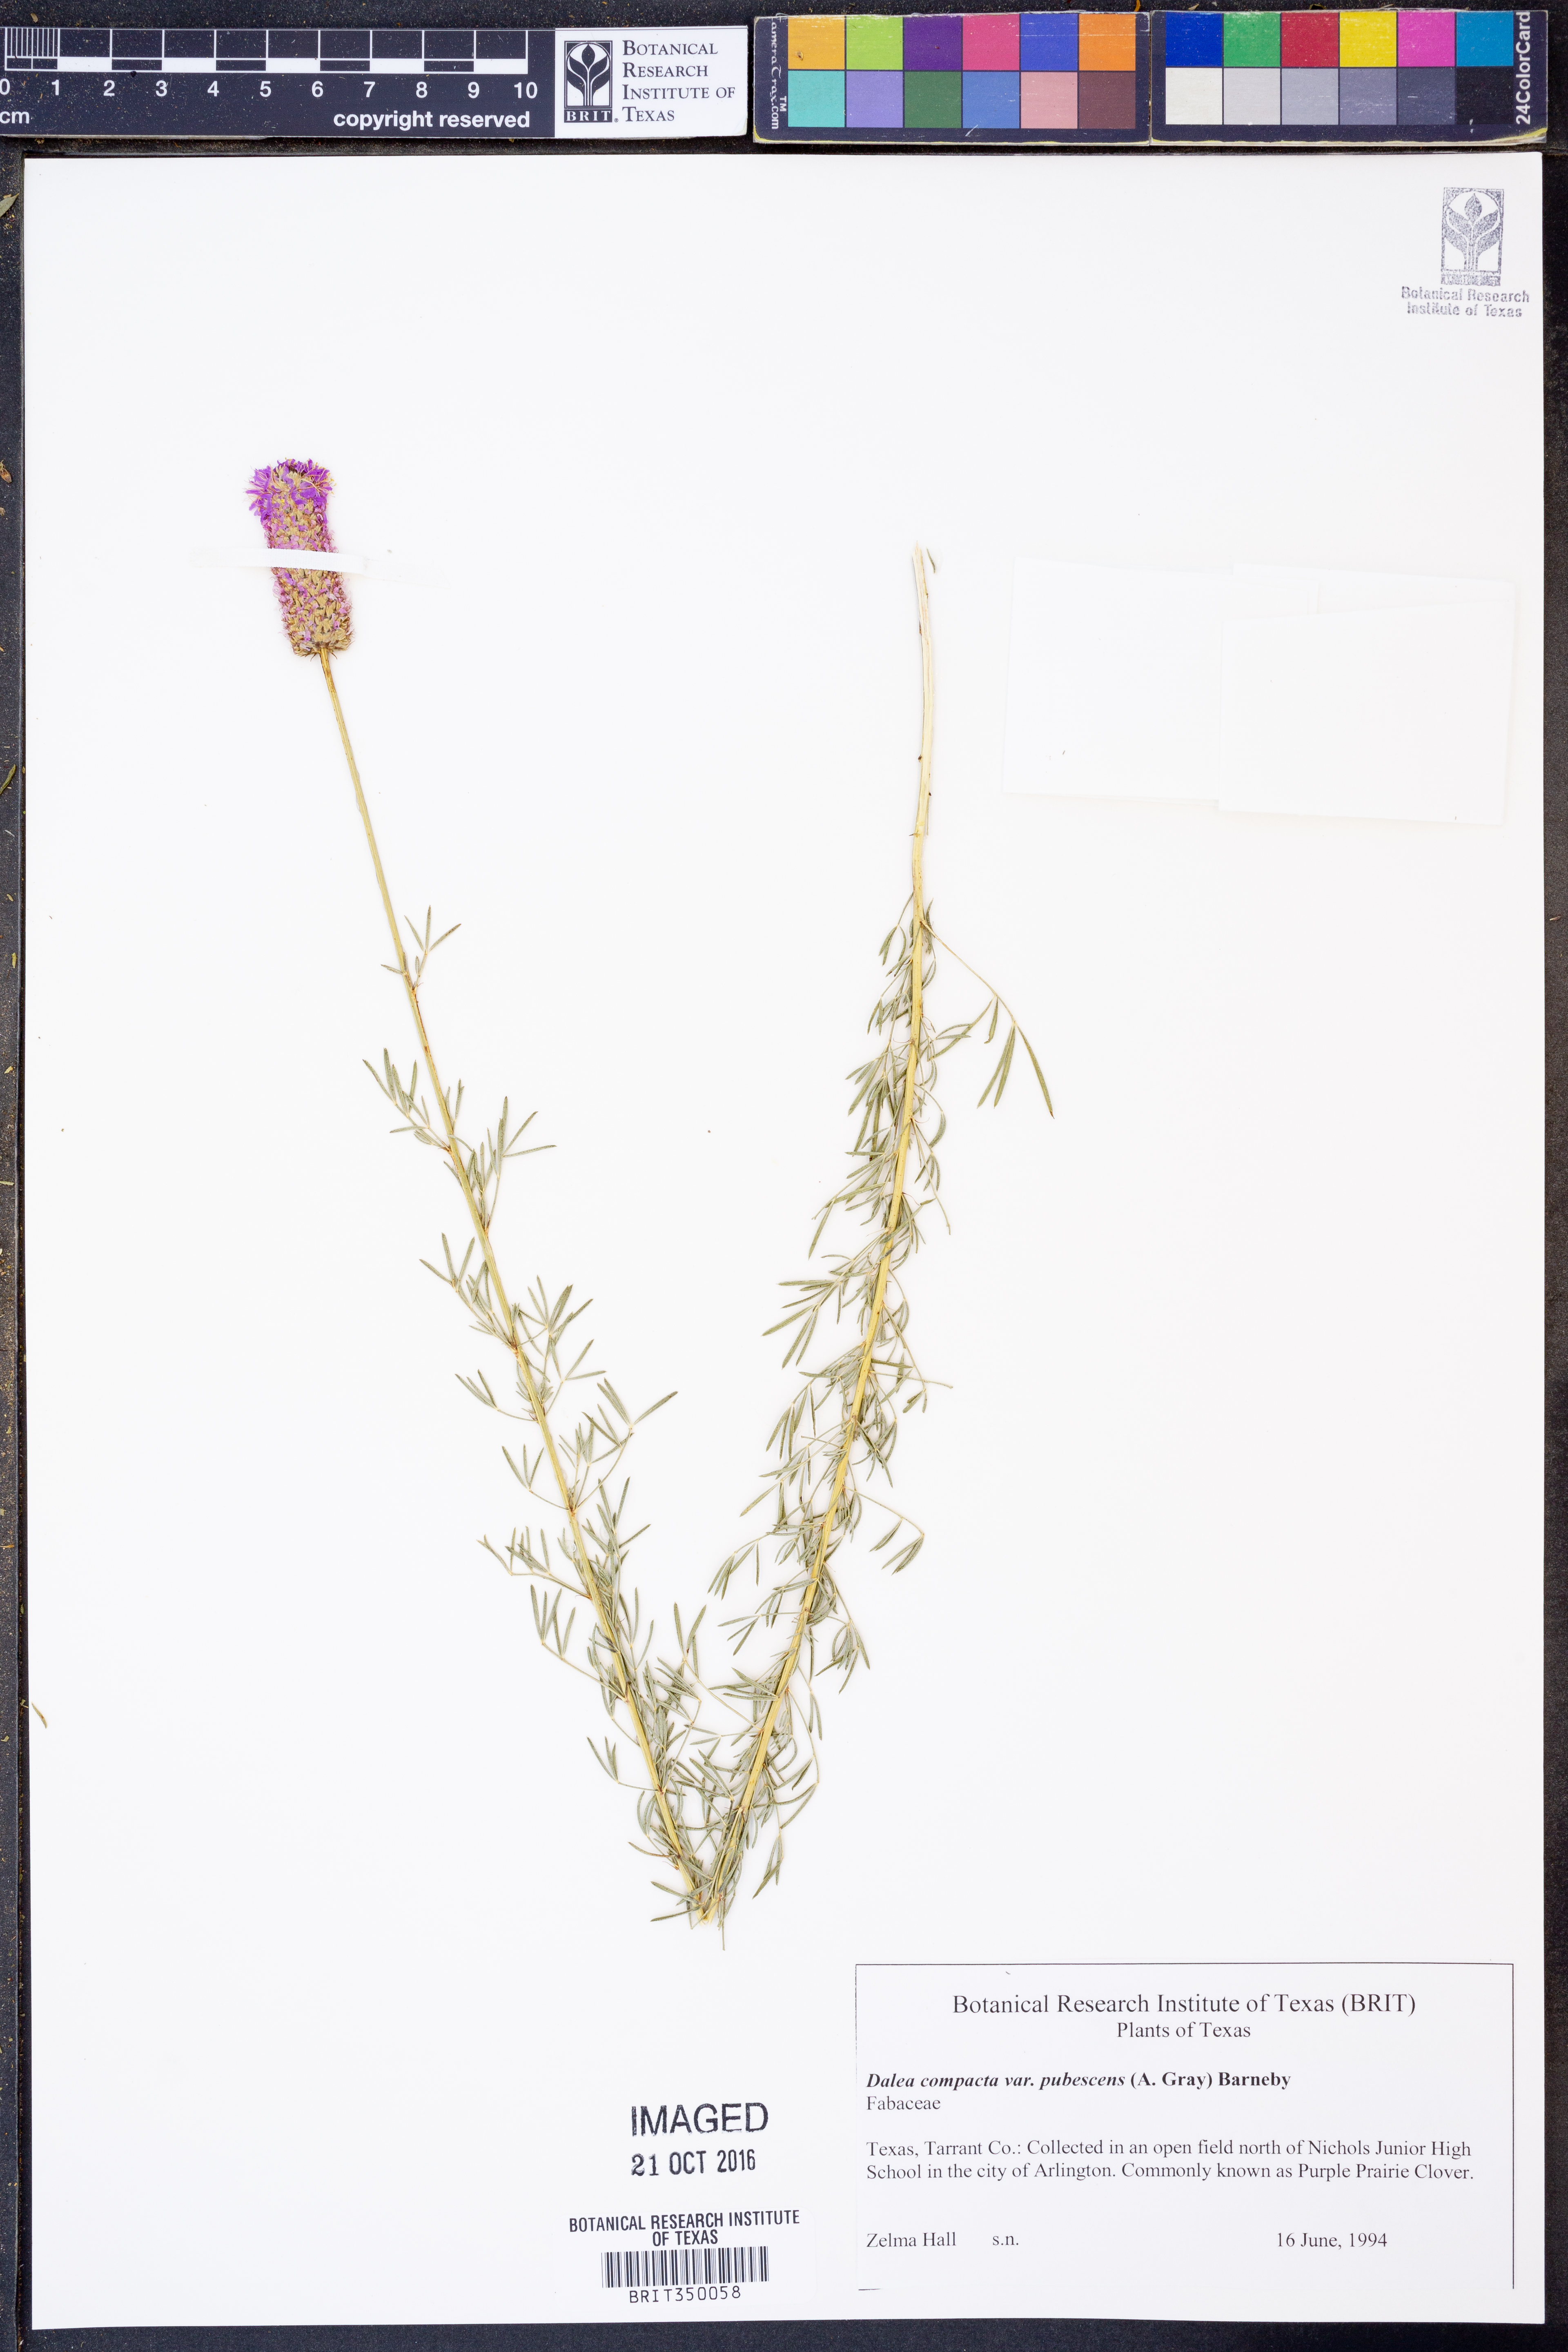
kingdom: Plantae
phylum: Tracheophyta
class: Magnoliopsida
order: Fabales
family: Fabaceae
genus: Dalea
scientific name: Dalea compacta
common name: Compact prairie-clover
